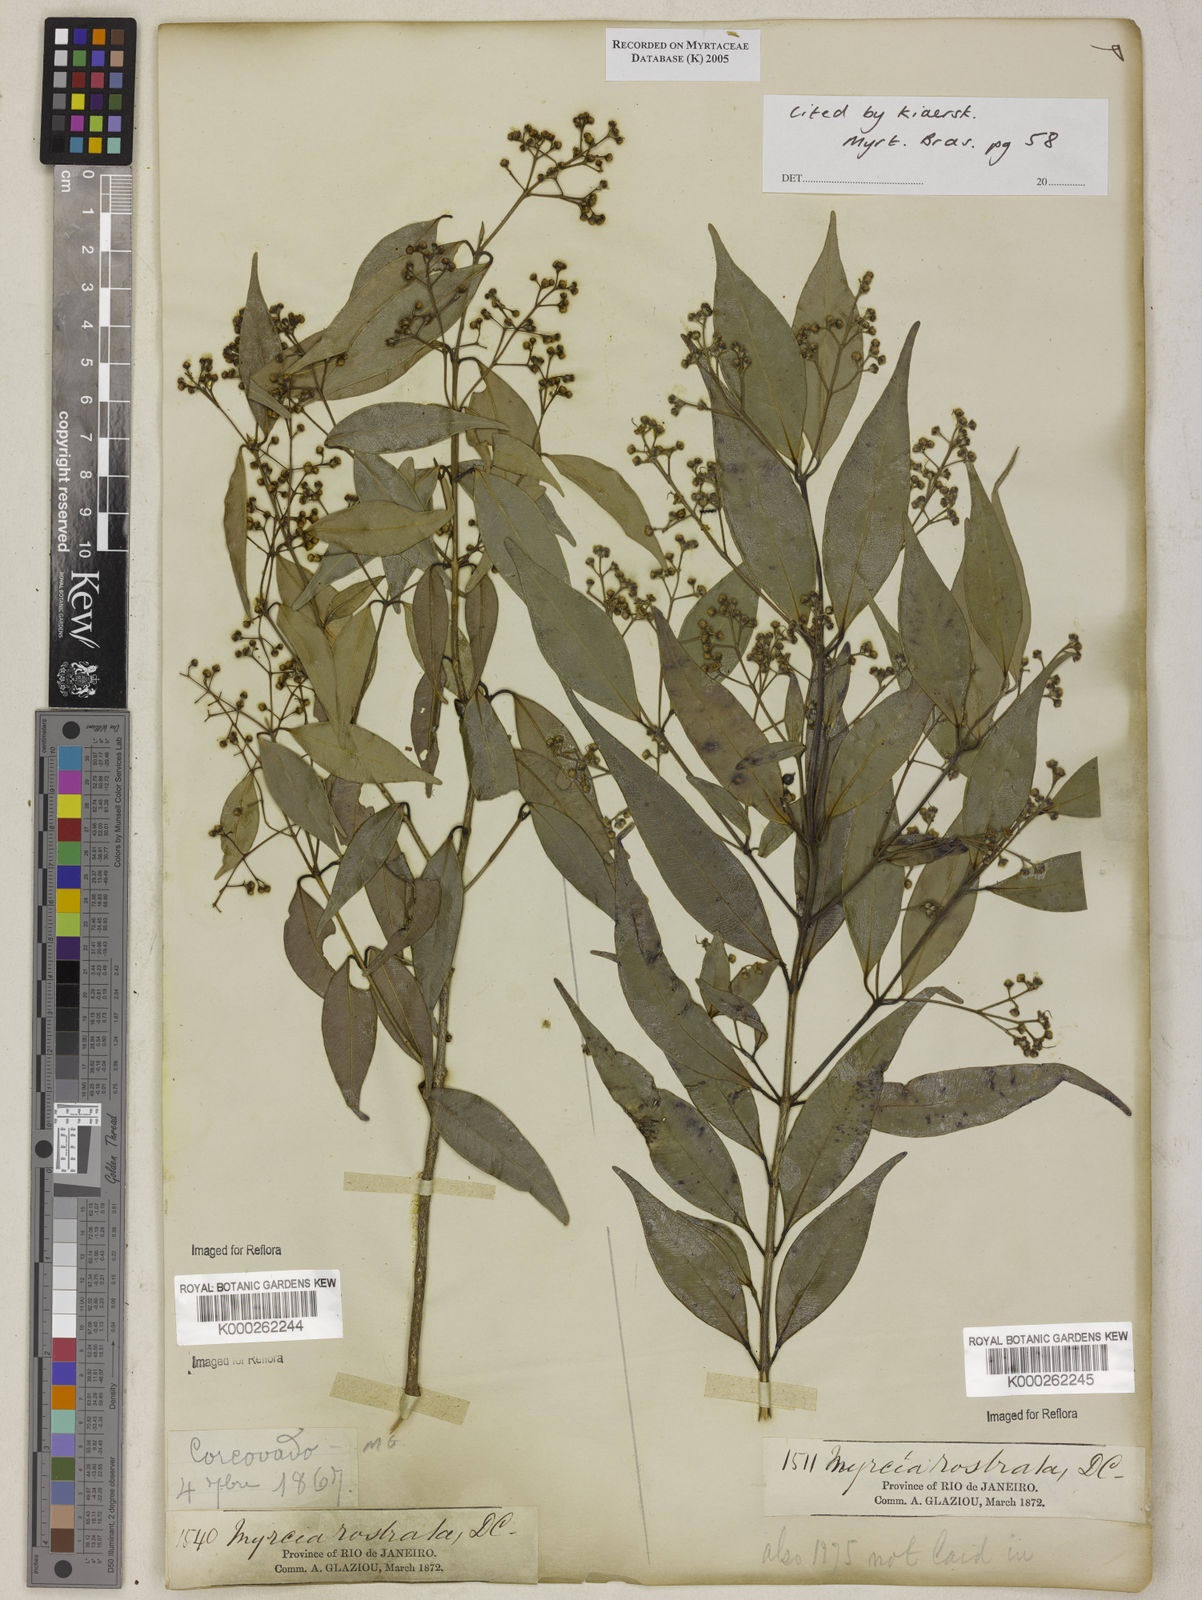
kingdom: Plantae
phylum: Tracheophyta
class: Magnoliopsida
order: Myrtales
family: Myrtaceae
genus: Myrcia
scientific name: Myrcia splendens
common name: Surinam cherry
